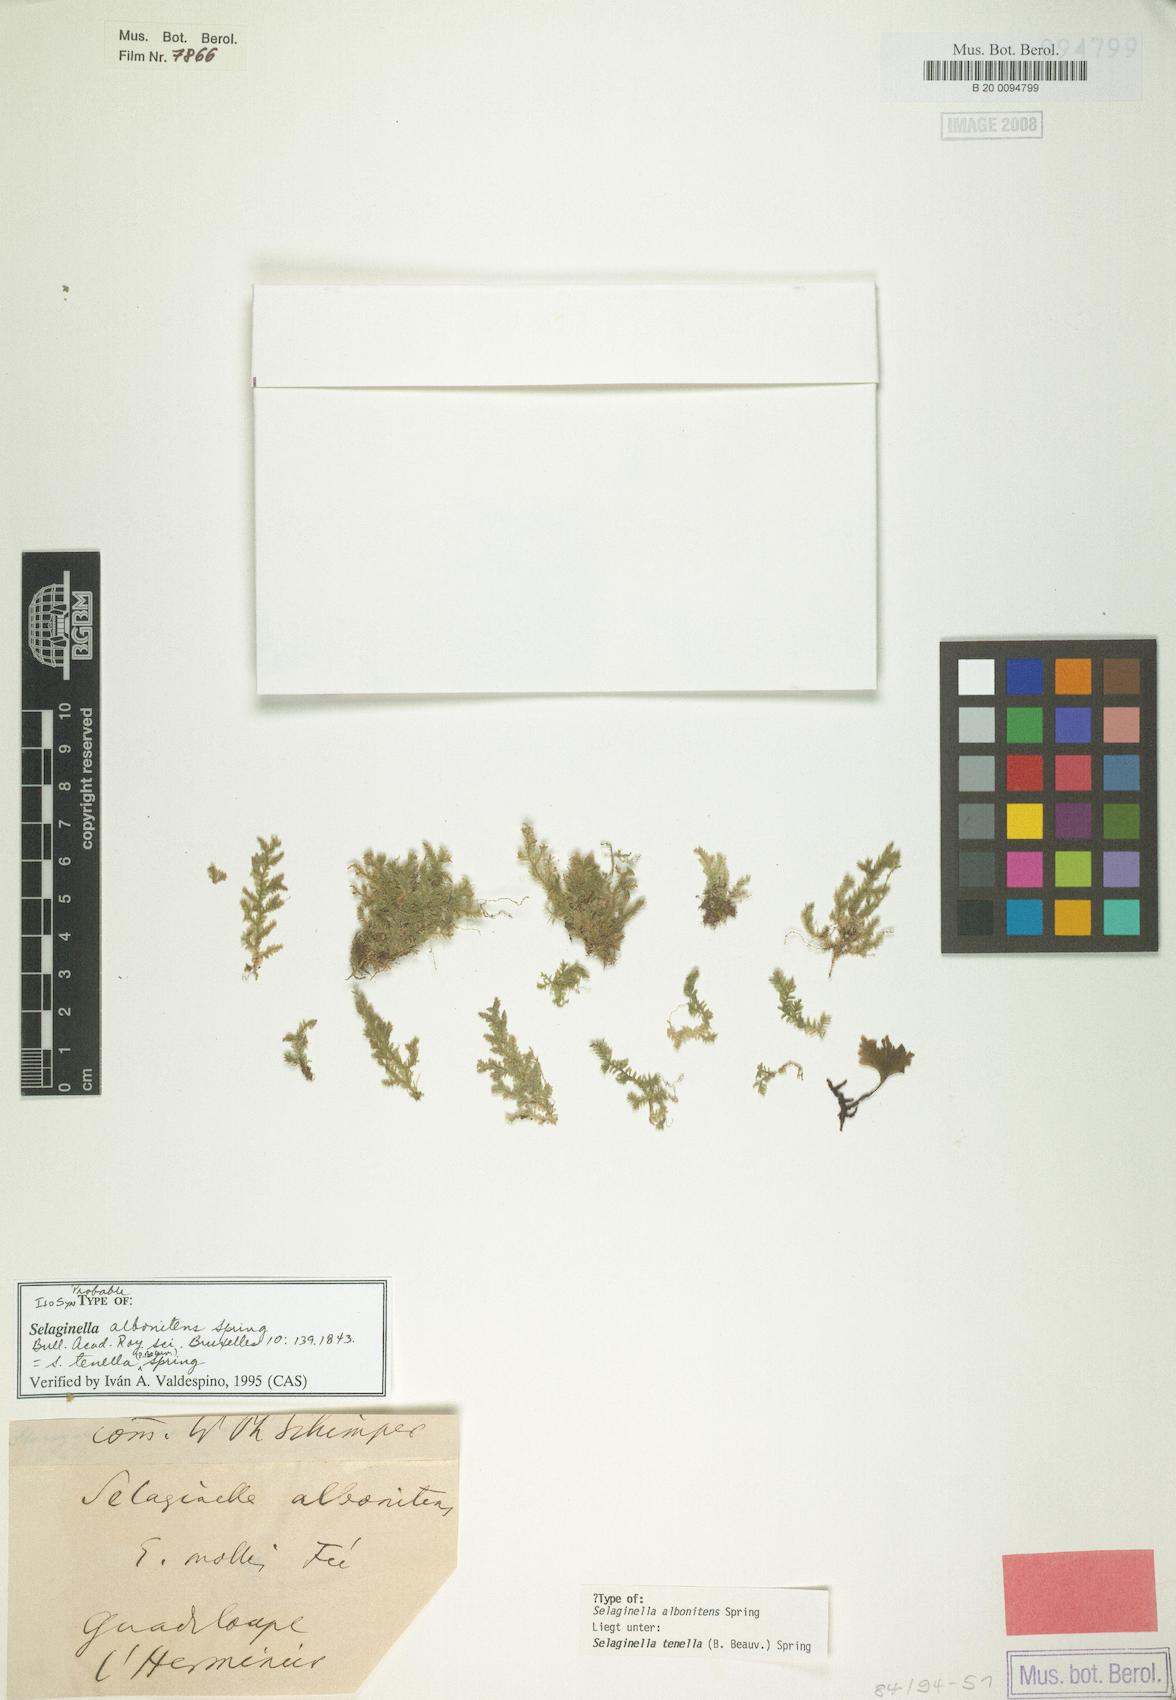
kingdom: Plantae
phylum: Tracheophyta
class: Lycopodiopsida
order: Selaginellales
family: Selaginellaceae
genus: Selaginella
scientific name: Selaginella tenella
